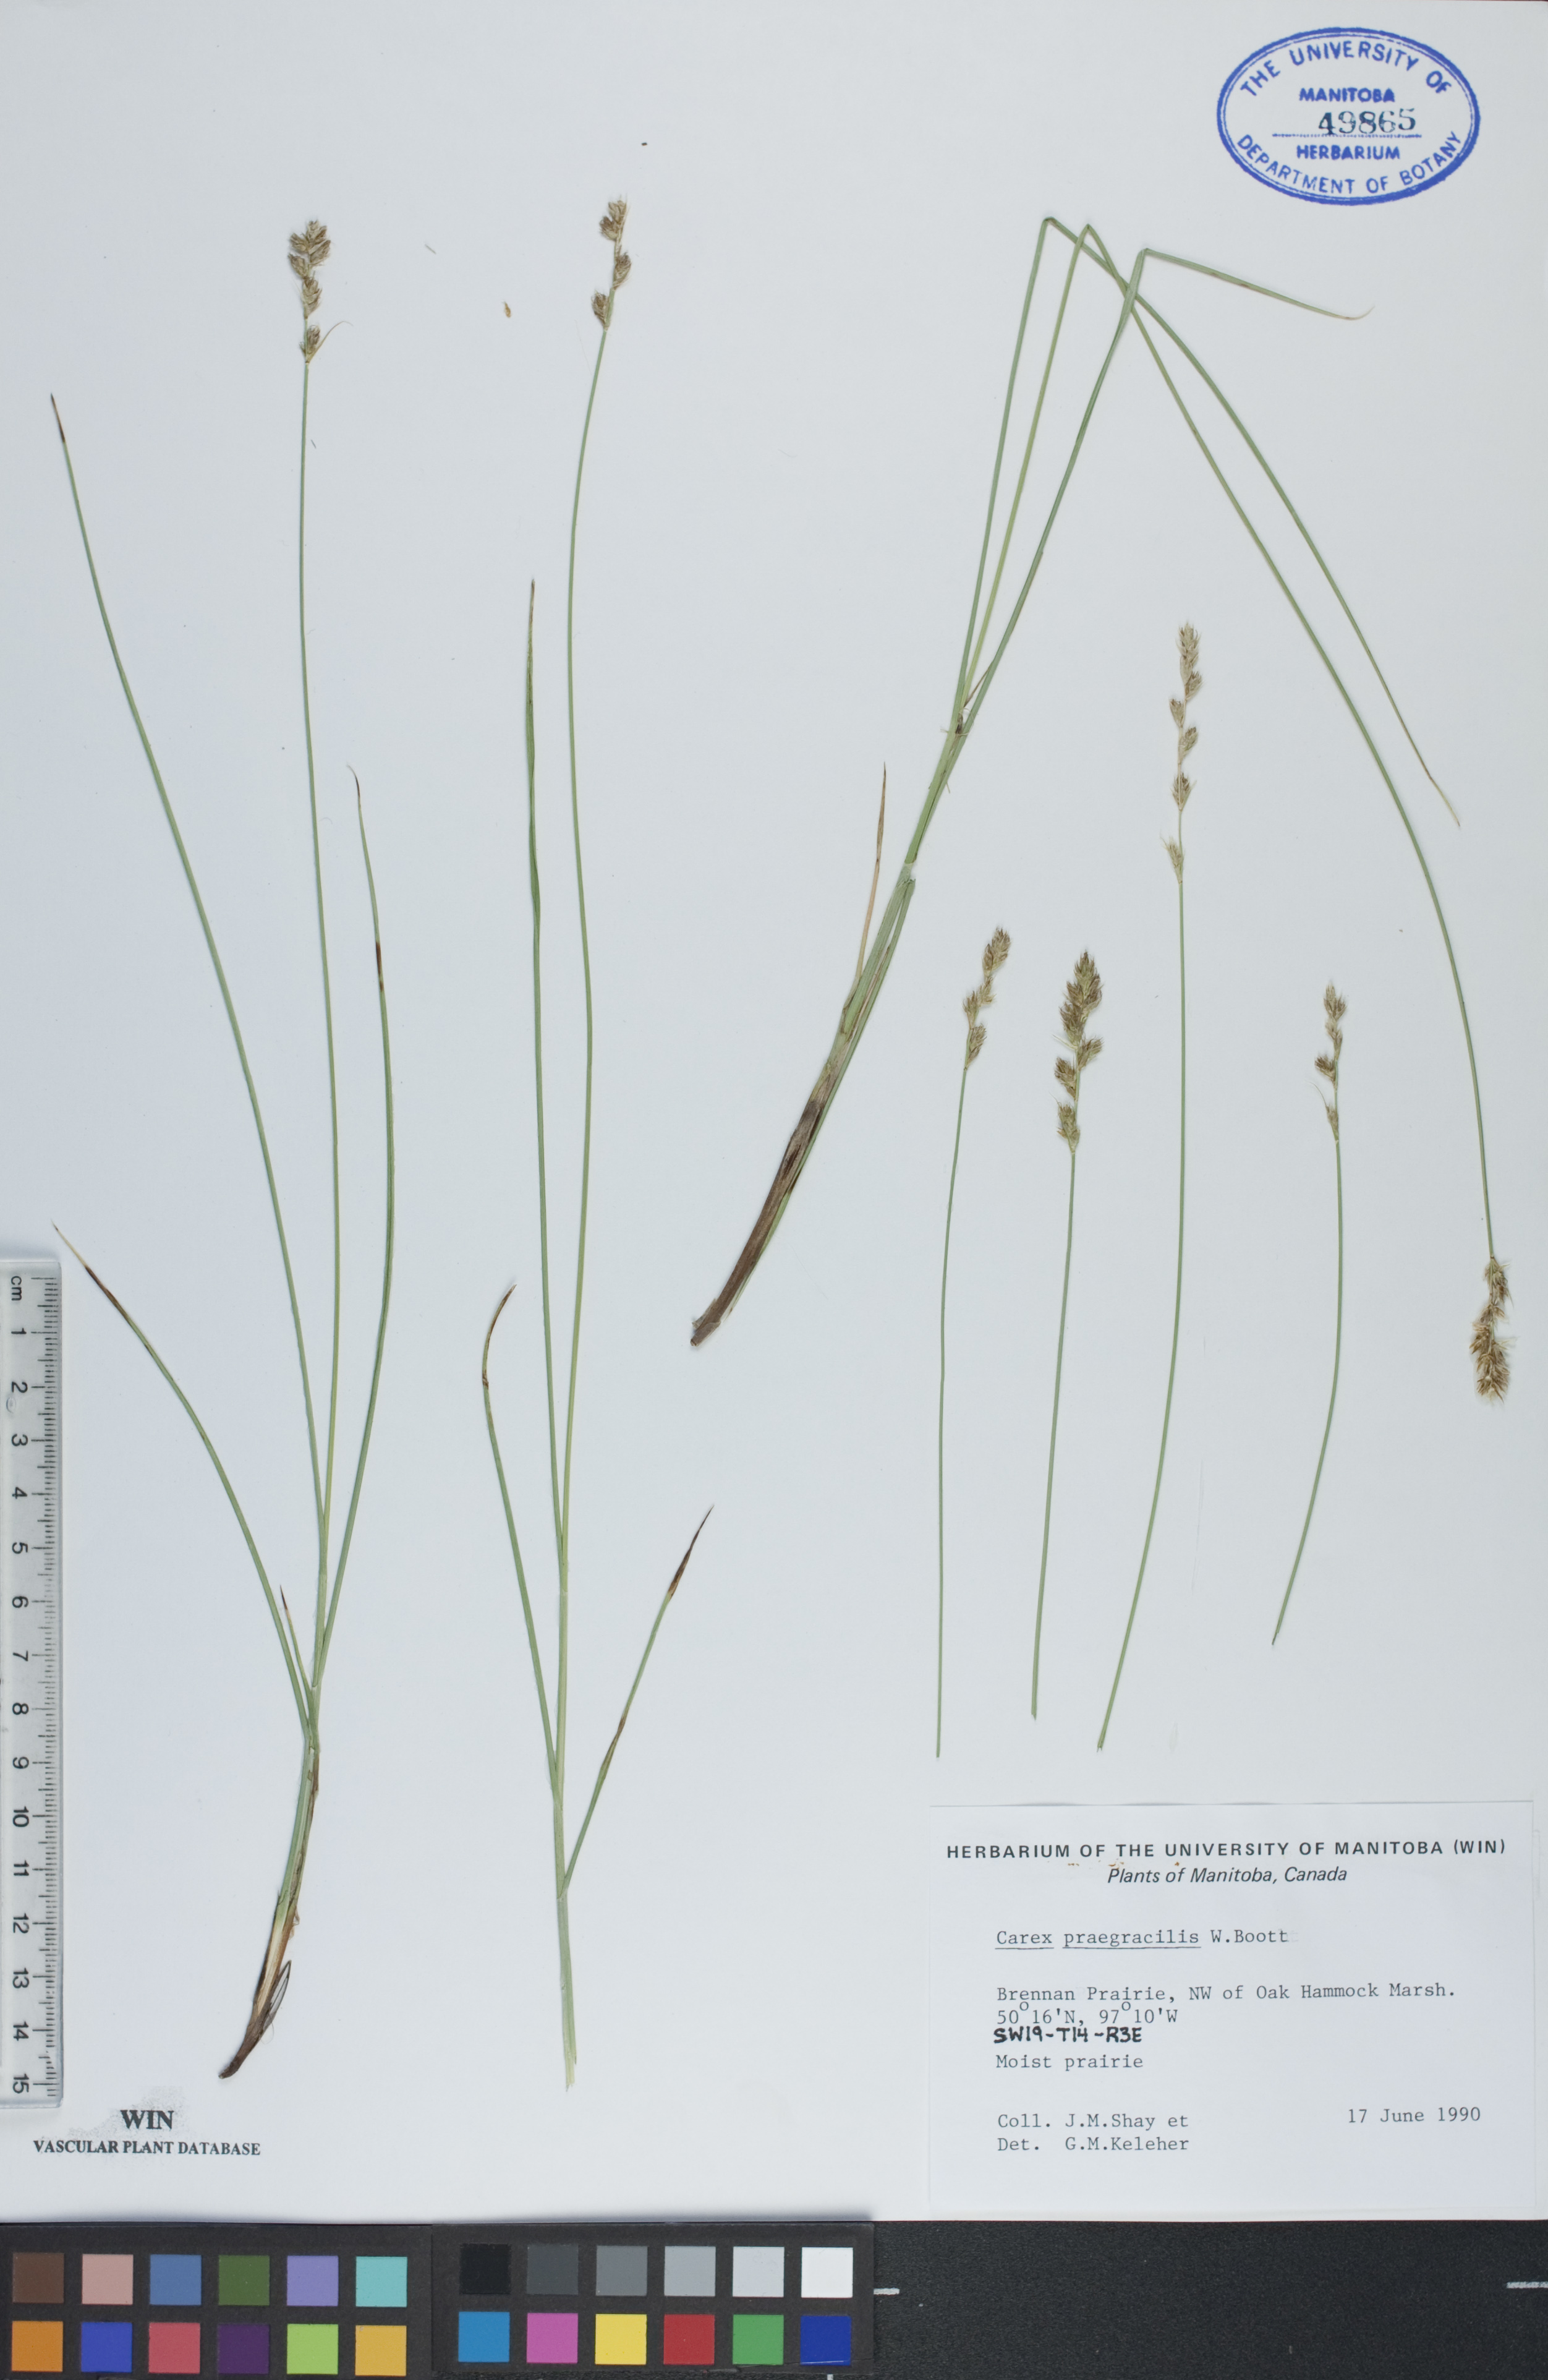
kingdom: Plantae
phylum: Tracheophyta
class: Liliopsida
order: Poales
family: Cyperaceae
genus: Carex
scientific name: Carex praegracilis
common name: Black creeper sedge
